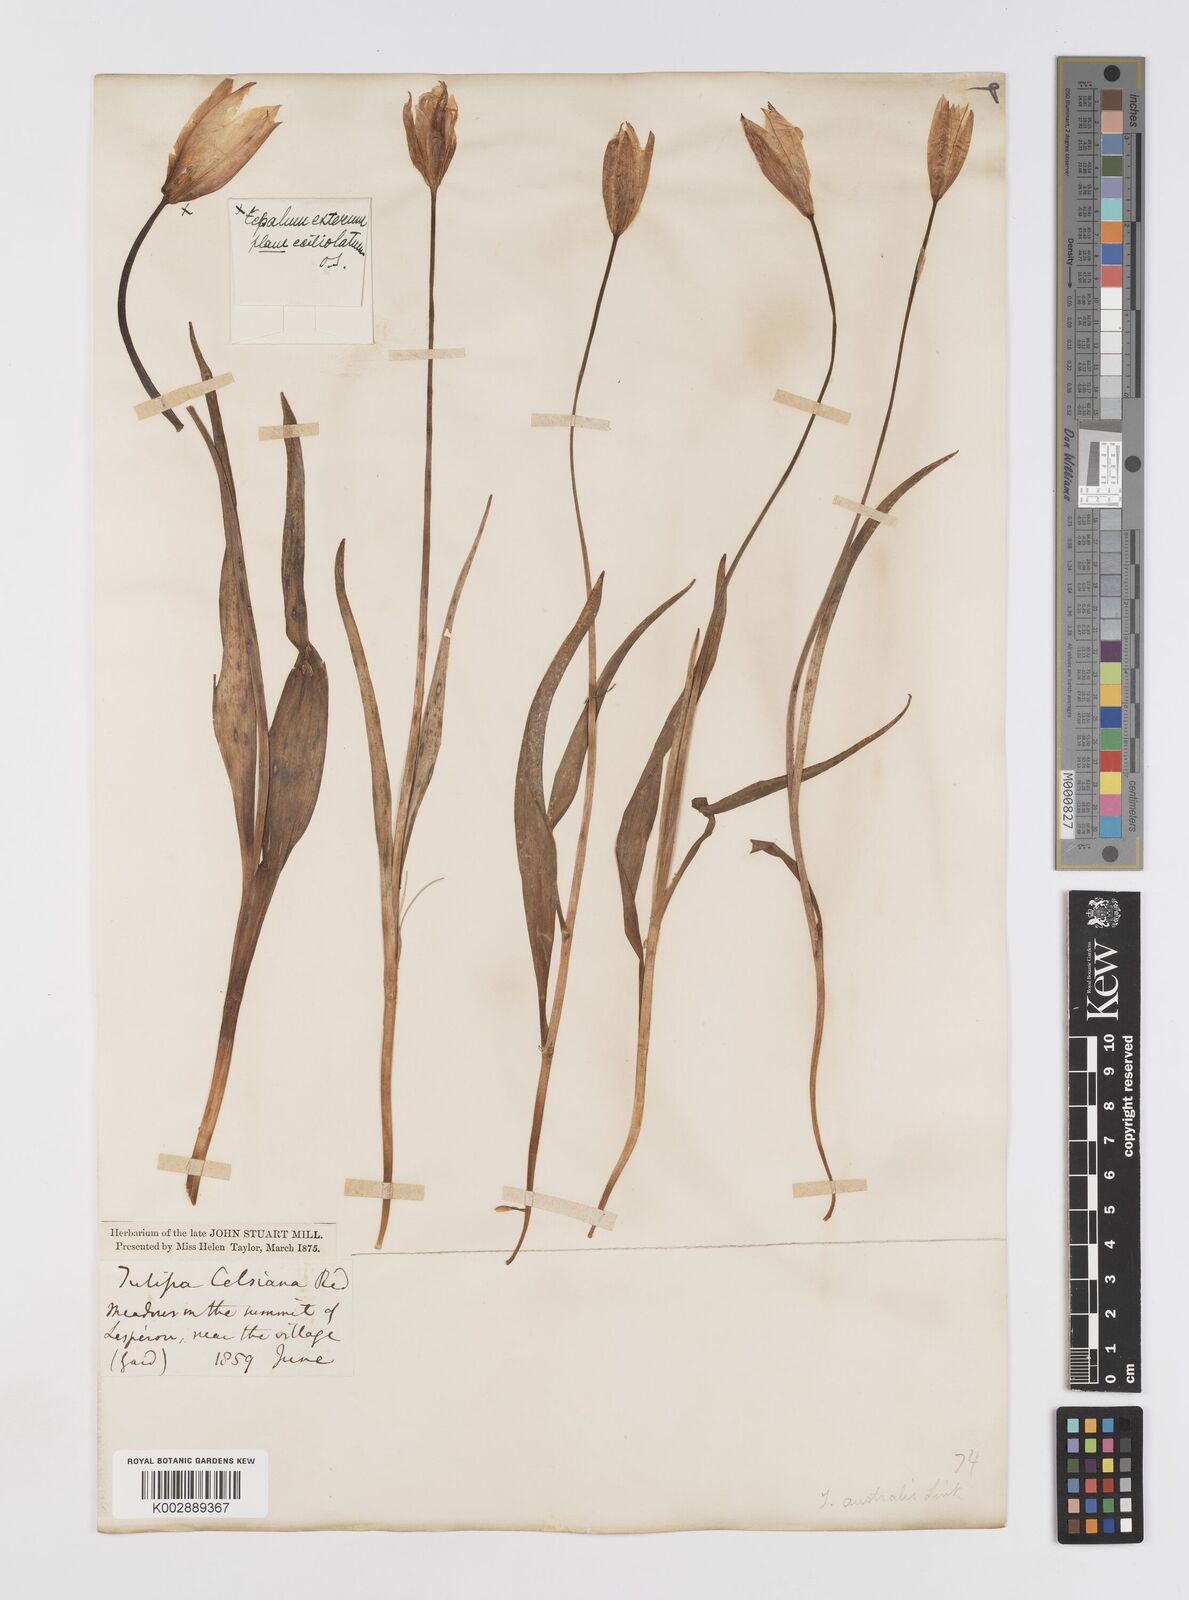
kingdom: Plantae
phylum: Tracheophyta
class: Liliopsida
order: Liliales
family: Liliaceae
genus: Tulipa
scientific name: Tulipa sylvestris
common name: Wild tulip
